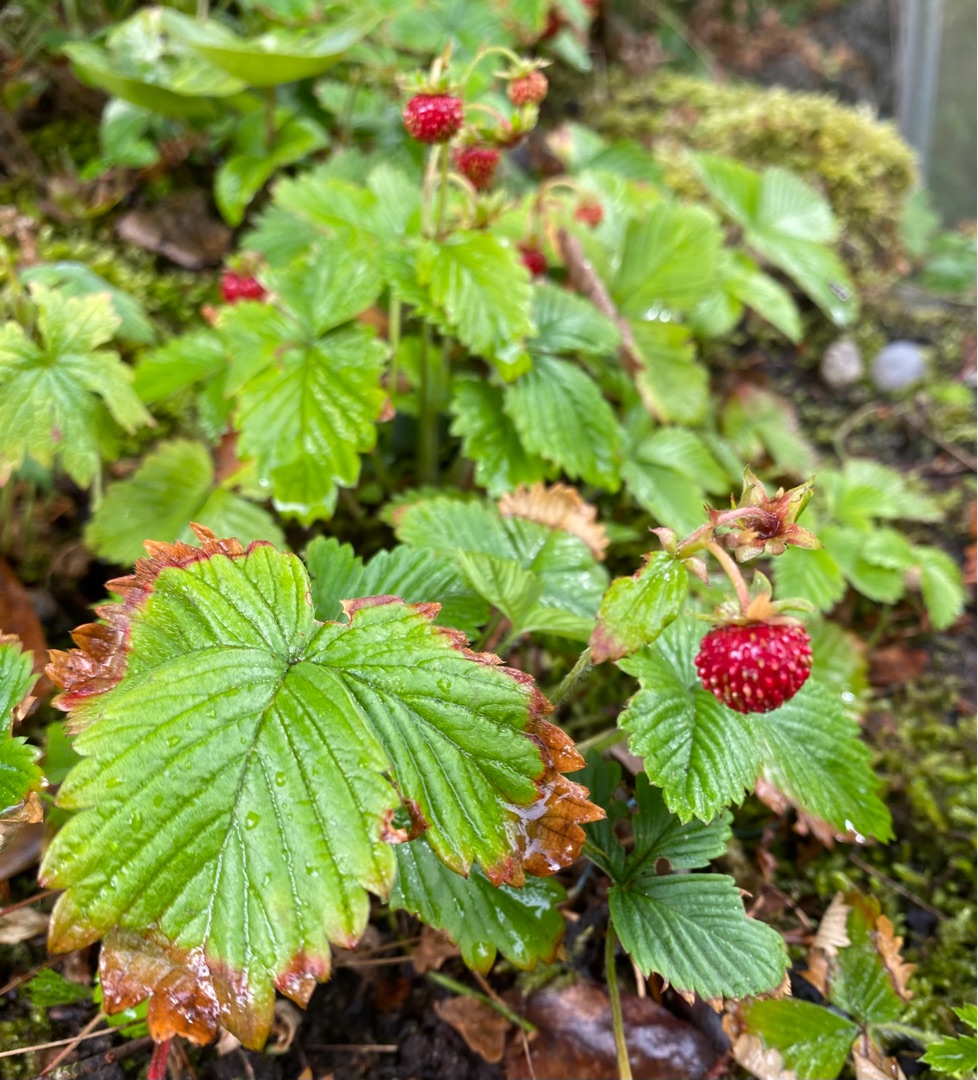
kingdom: Plantae
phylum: Tracheophyta
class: Magnoliopsida
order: Rosales
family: Rosaceae
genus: Fragaria
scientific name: Fragaria vesca
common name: Skov-jordbær
